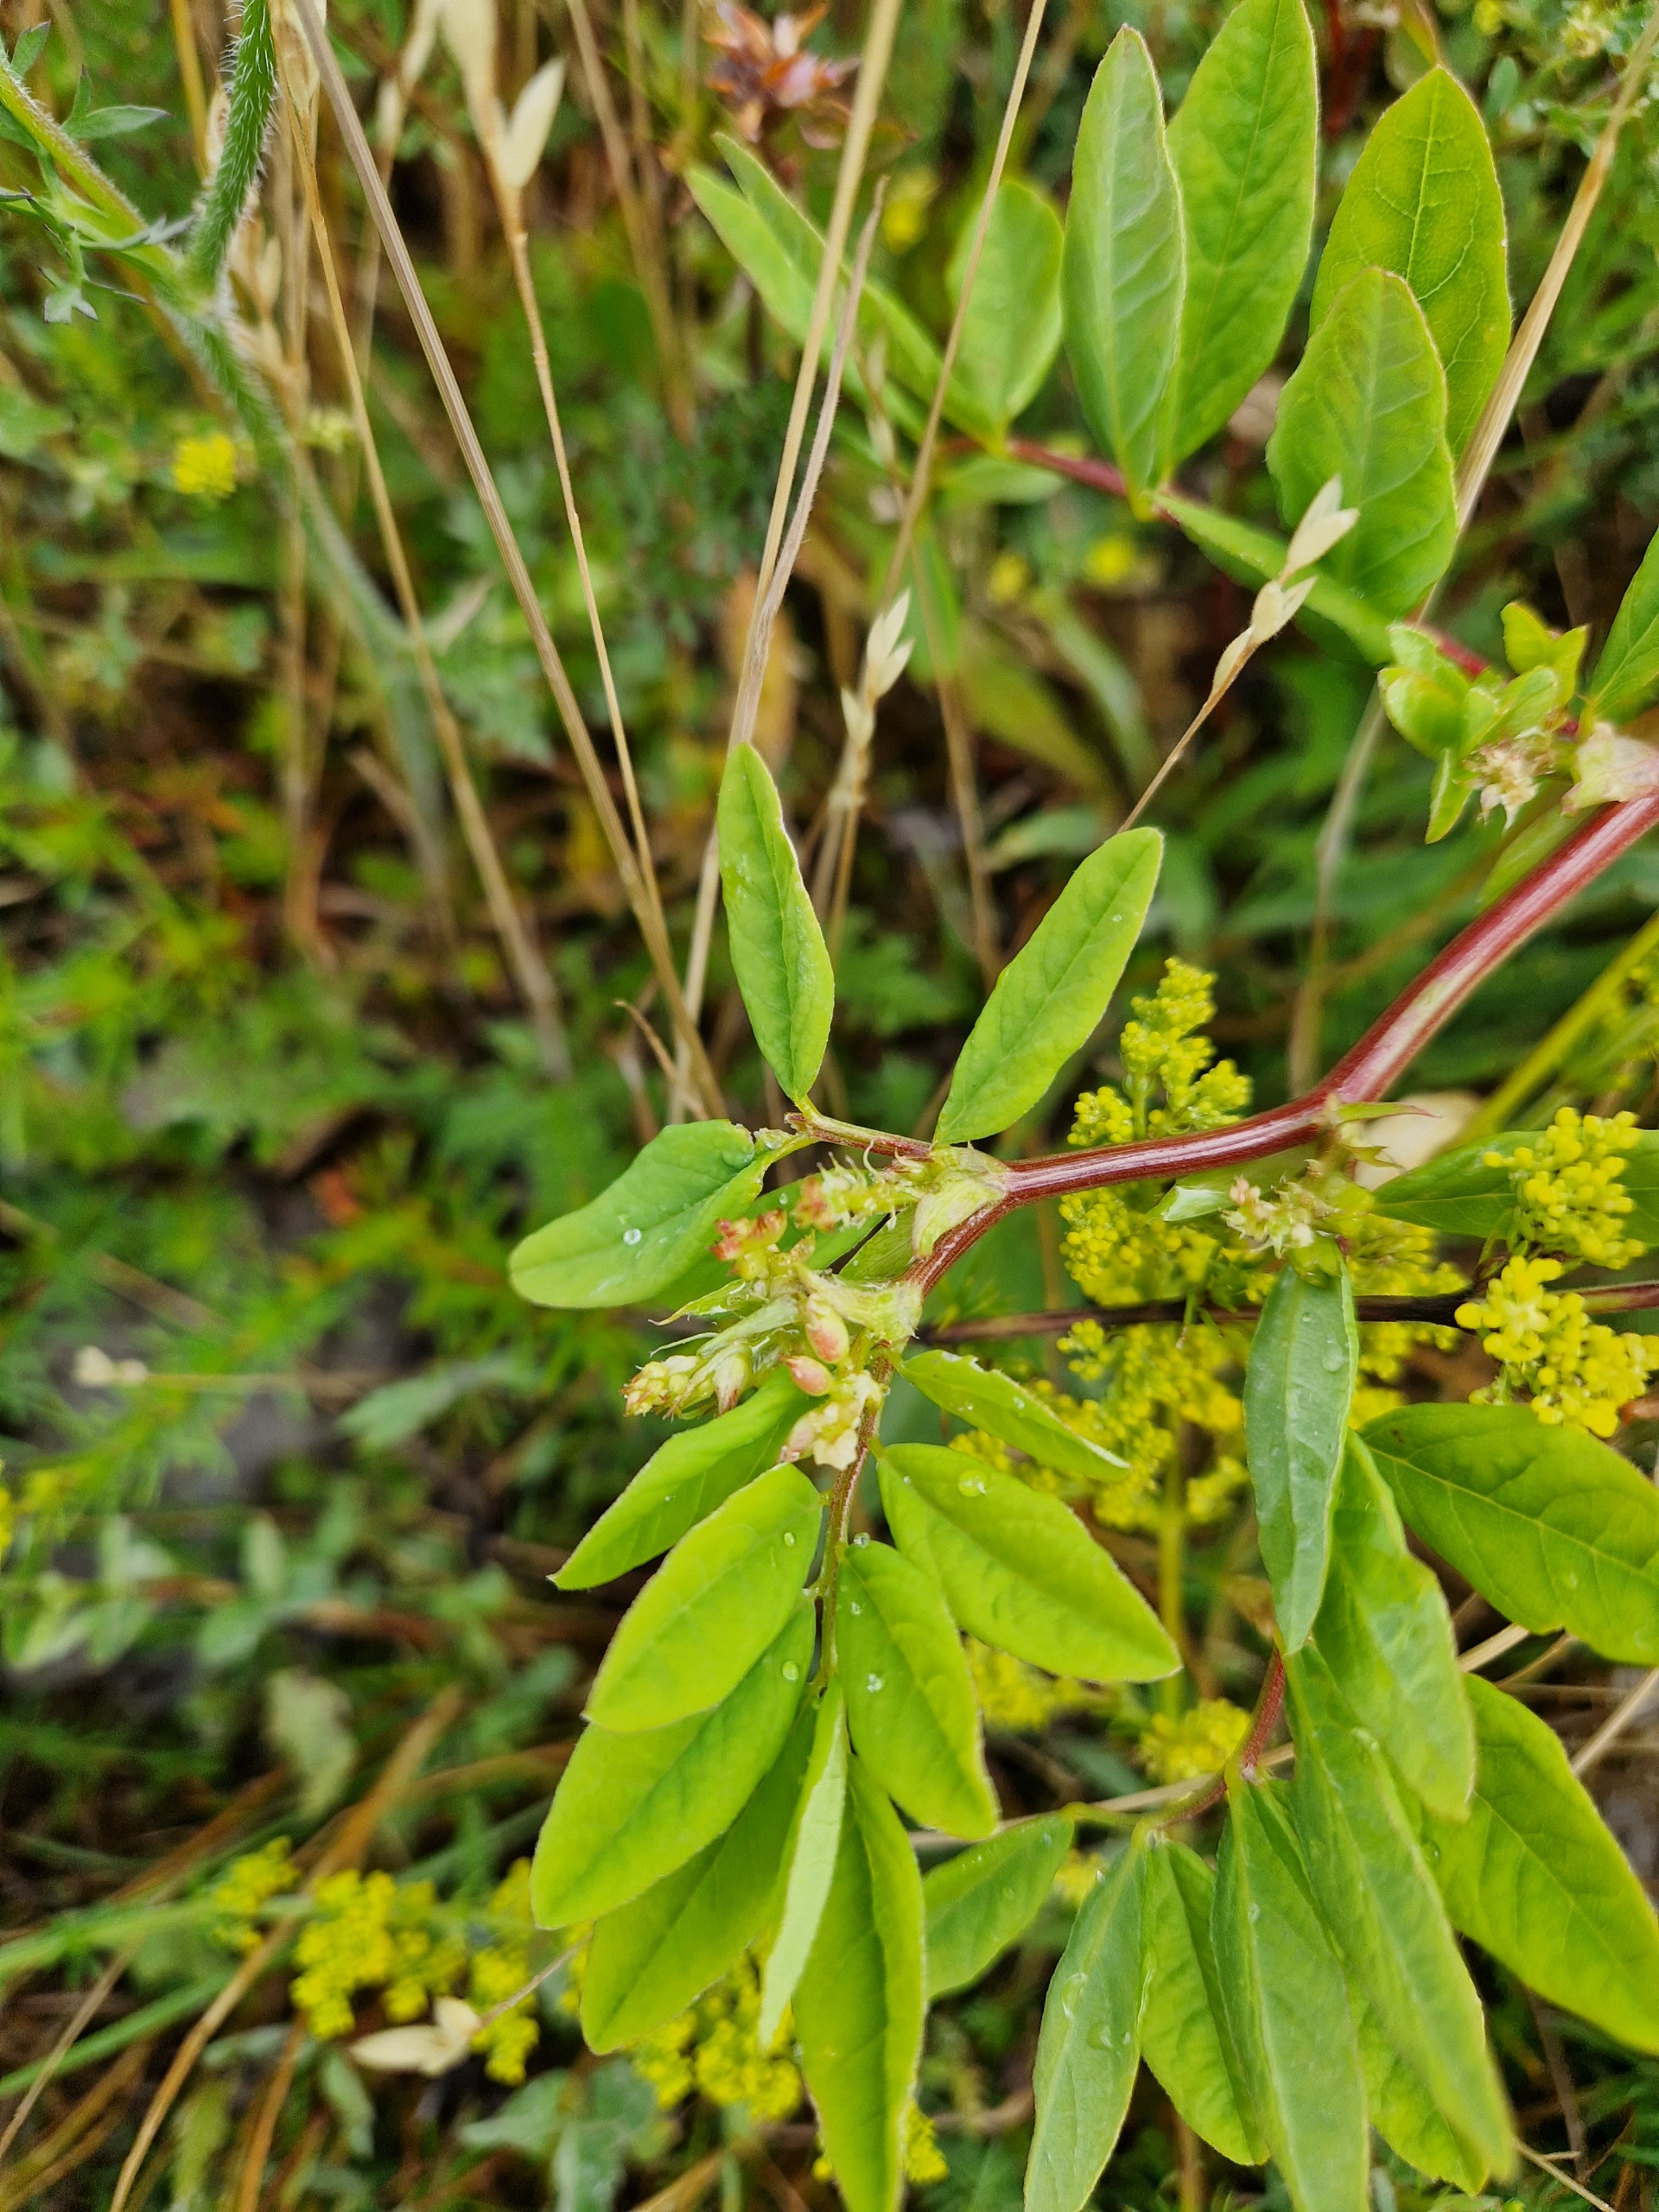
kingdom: Plantae
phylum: Tracheophyta
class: Magnoliopsida
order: Fabales
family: Fabaceae
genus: Astragalus
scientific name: Astragalus glycyphyllos
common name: Sød astragel
